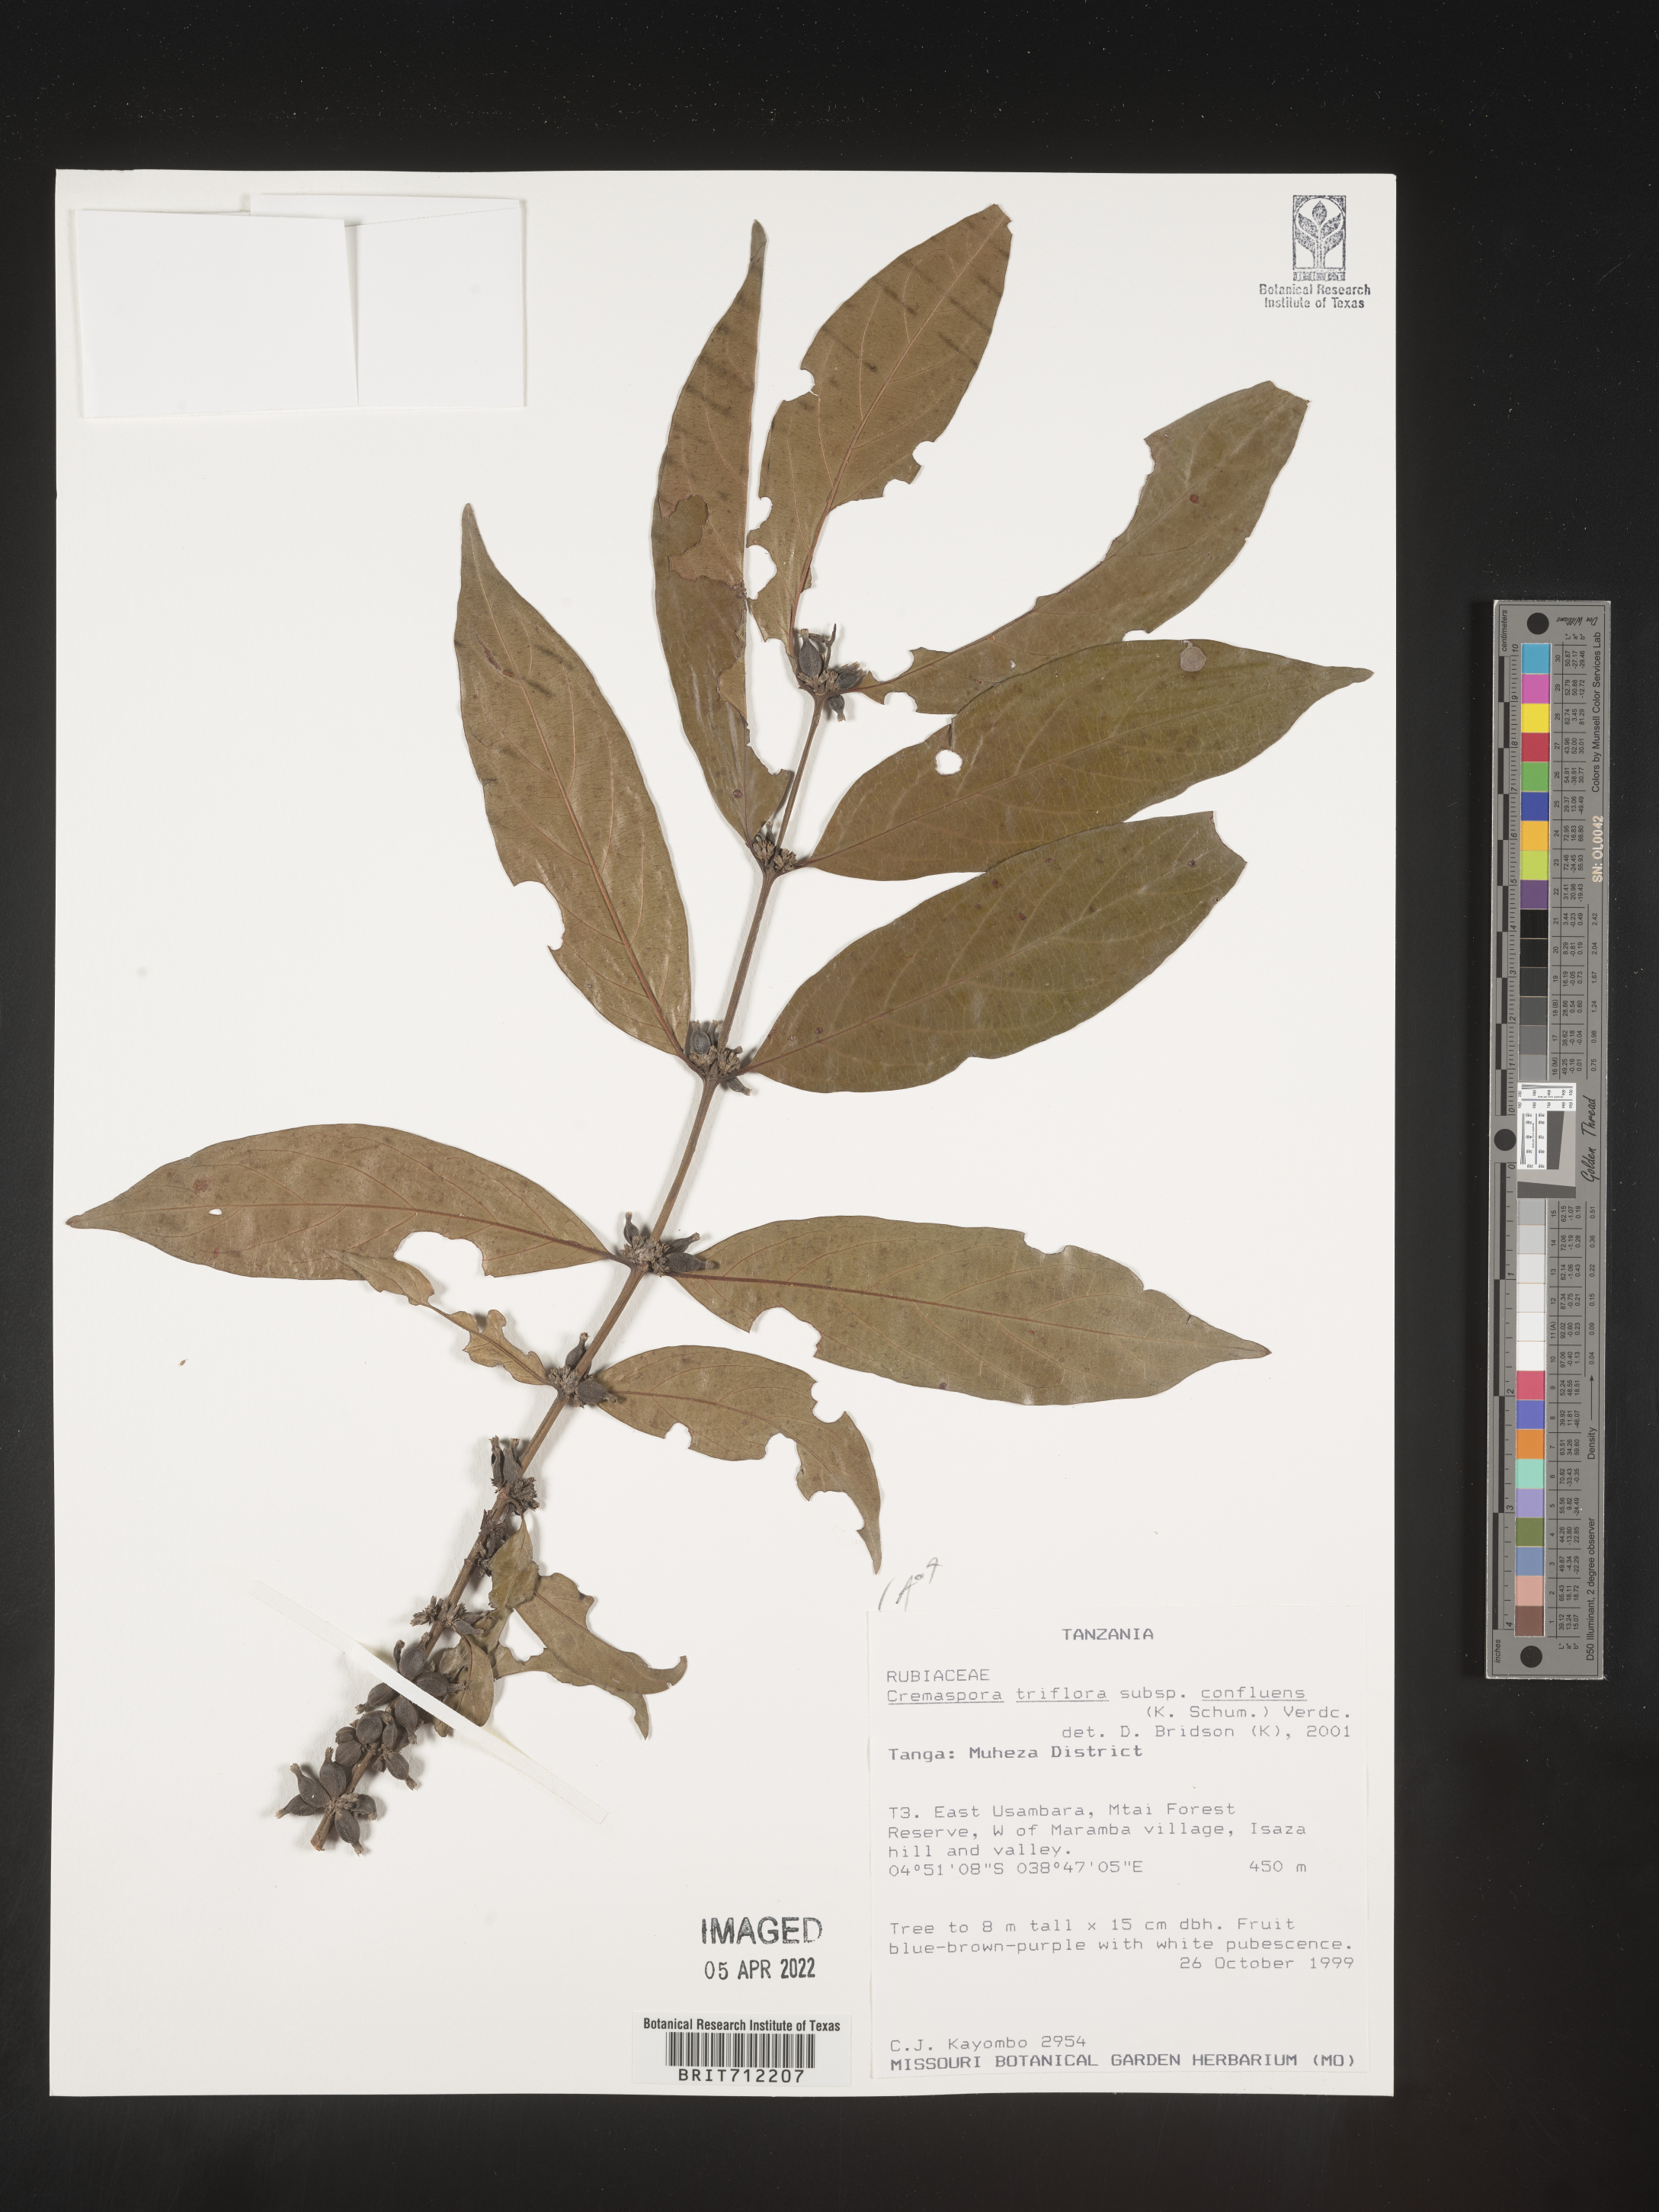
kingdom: Plantae
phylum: Tracheophyta
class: Magnoliopsida
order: Gentianales
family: Rubiaceae
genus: Cremaspora
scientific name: Cremaspora
